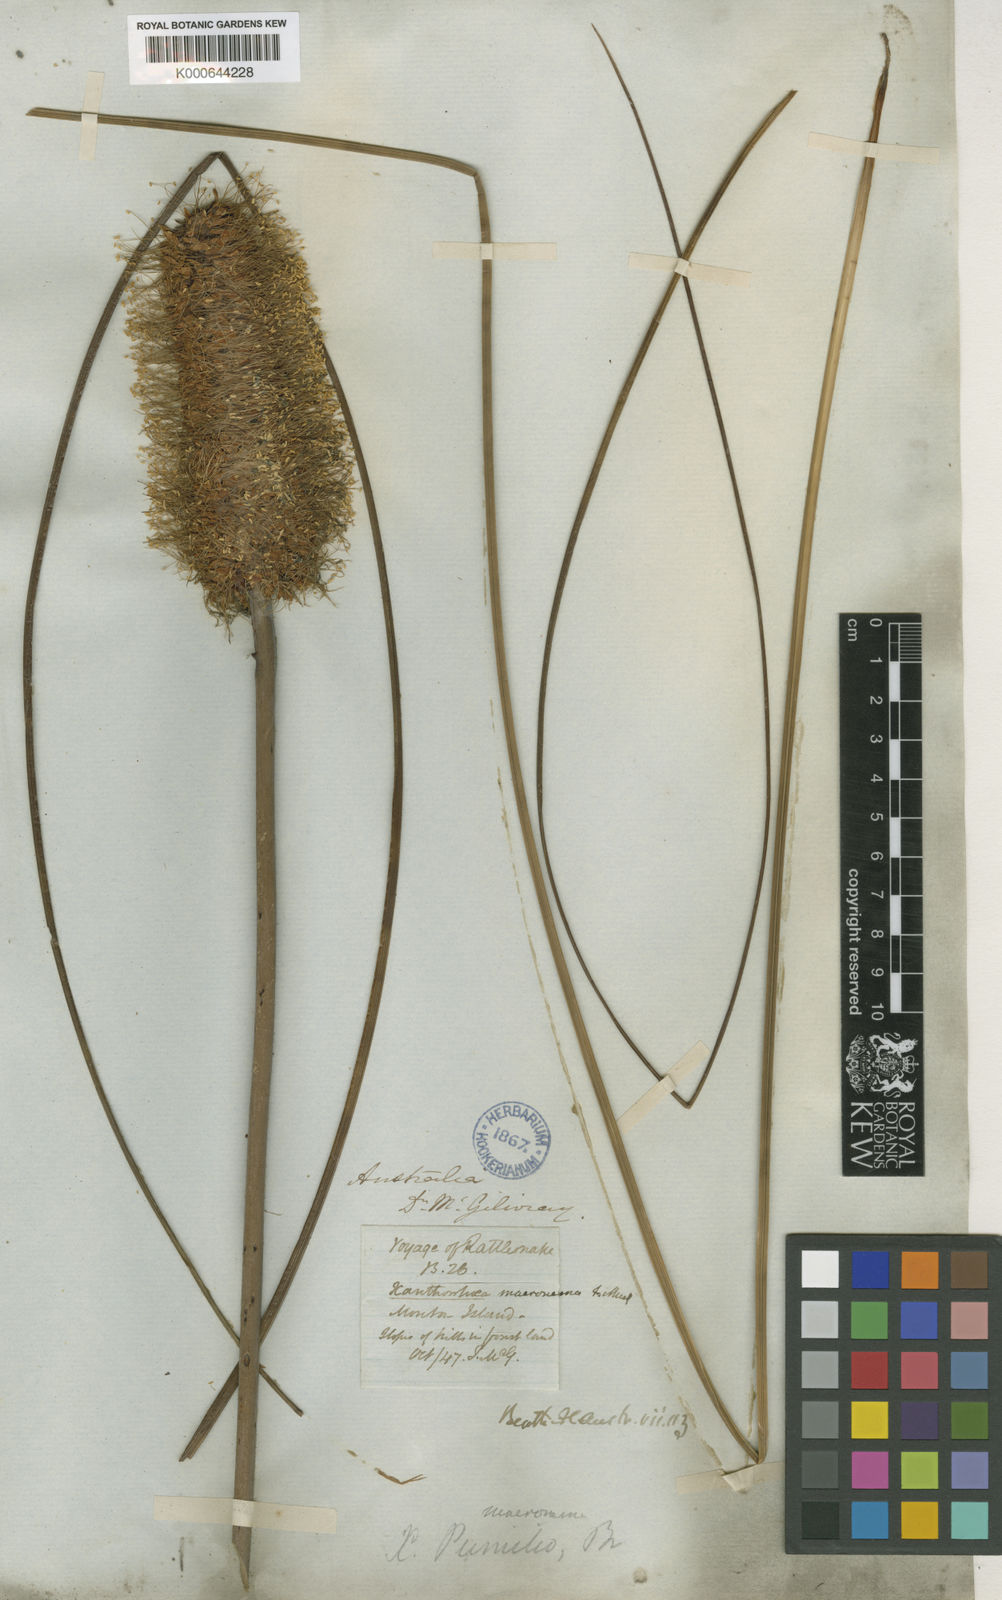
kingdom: Plantae
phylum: Tracheophyta
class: Liliopsida
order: Asparagales
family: Asphodelaceae
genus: Xanthorrhoea
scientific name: Xanthorrhoea macronema
